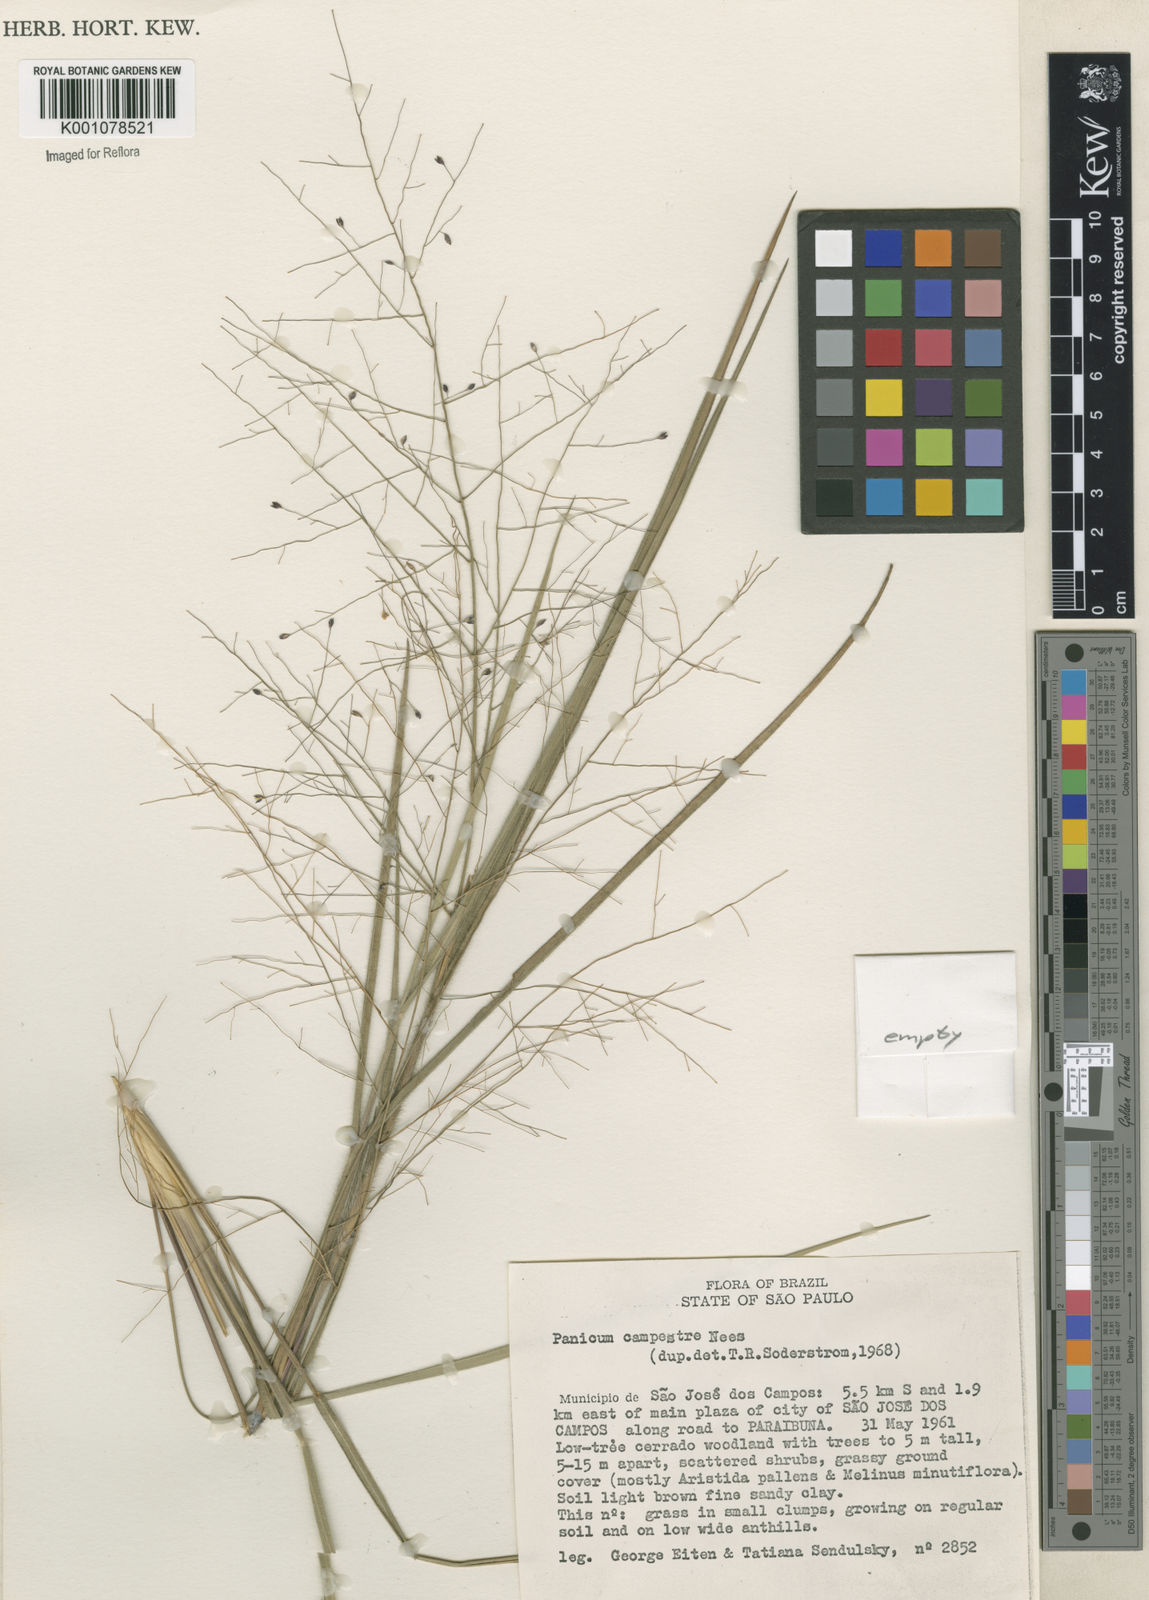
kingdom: Plantae
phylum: Tracheophyta
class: Liliopsida
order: Poales
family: Poaceae
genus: Panicum
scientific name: Panicum campestre
